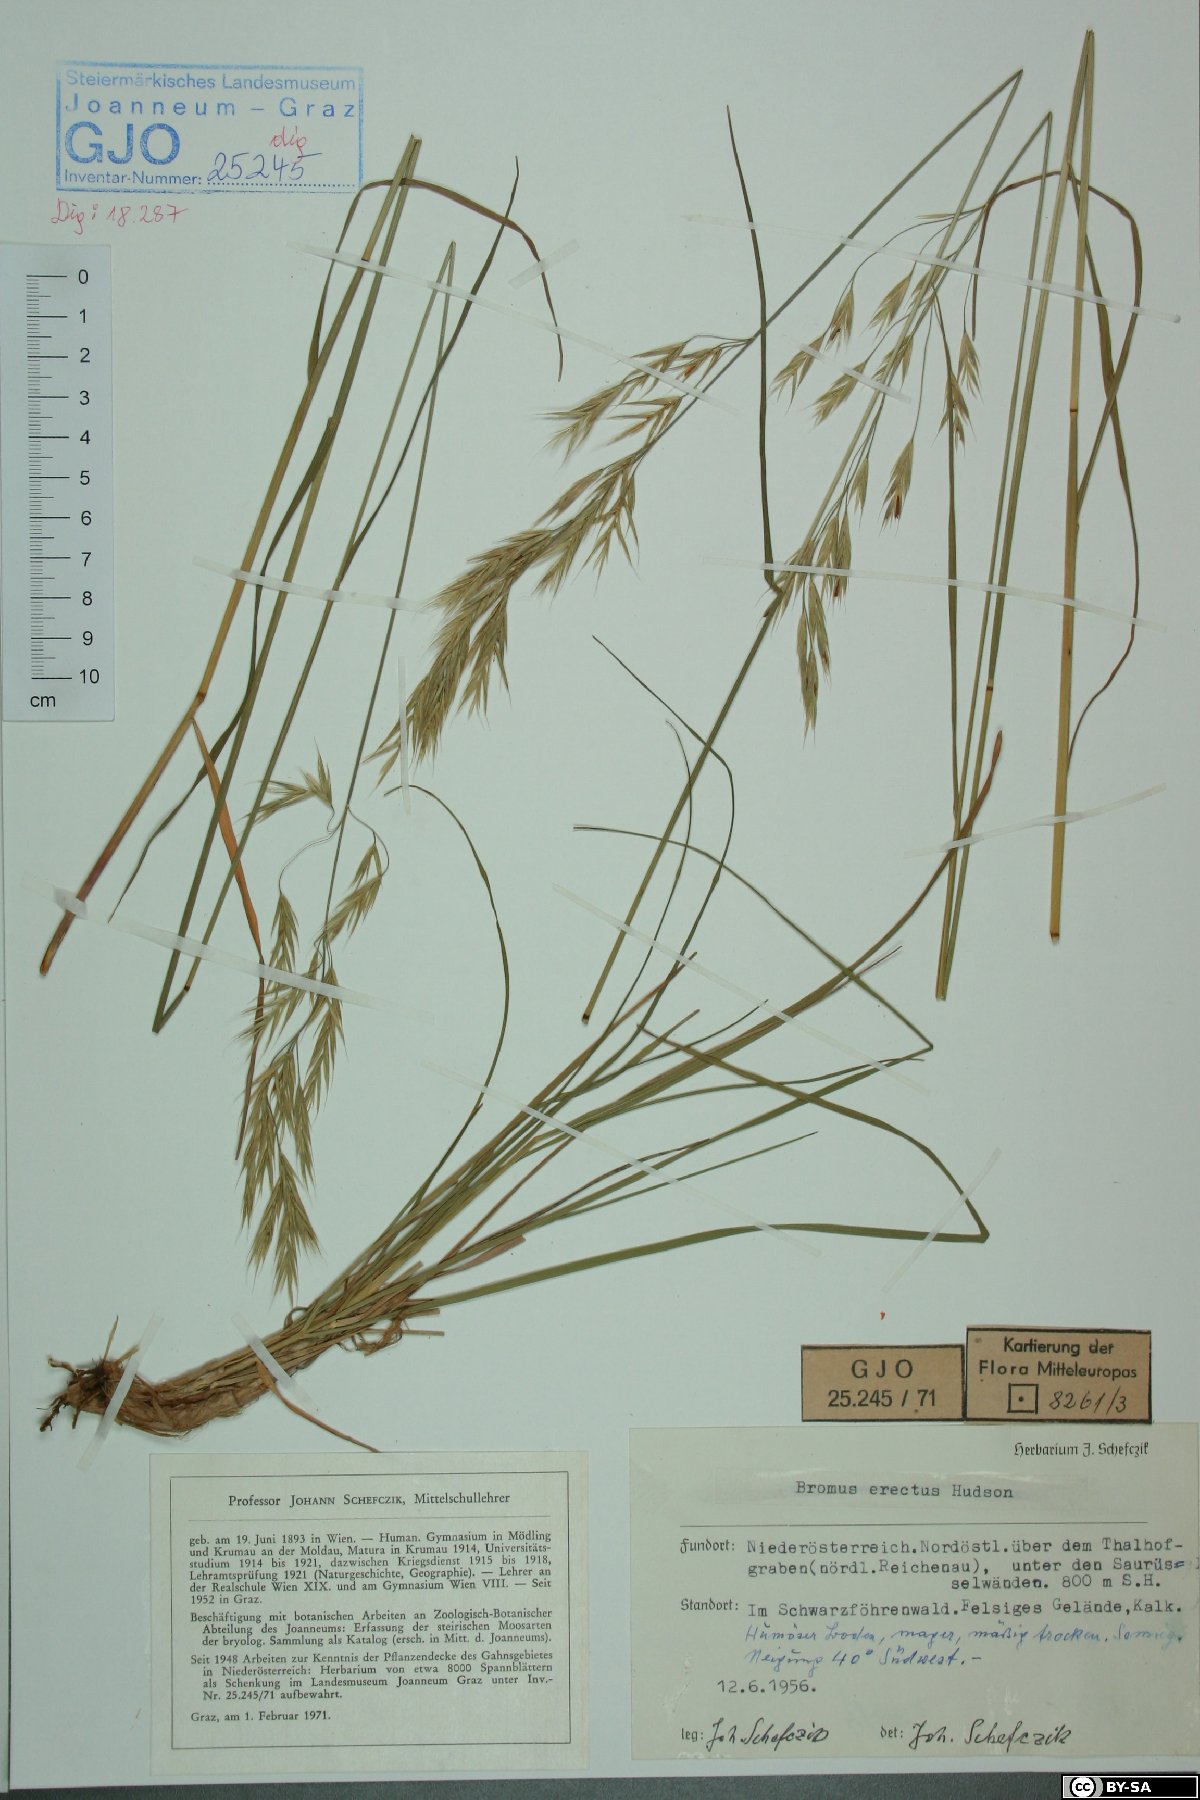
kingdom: Plantae
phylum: Tracheophyta
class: Liliopsida
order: Poales
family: Poaceae
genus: Bromus
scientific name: Bromus erectus
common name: Erect brome
